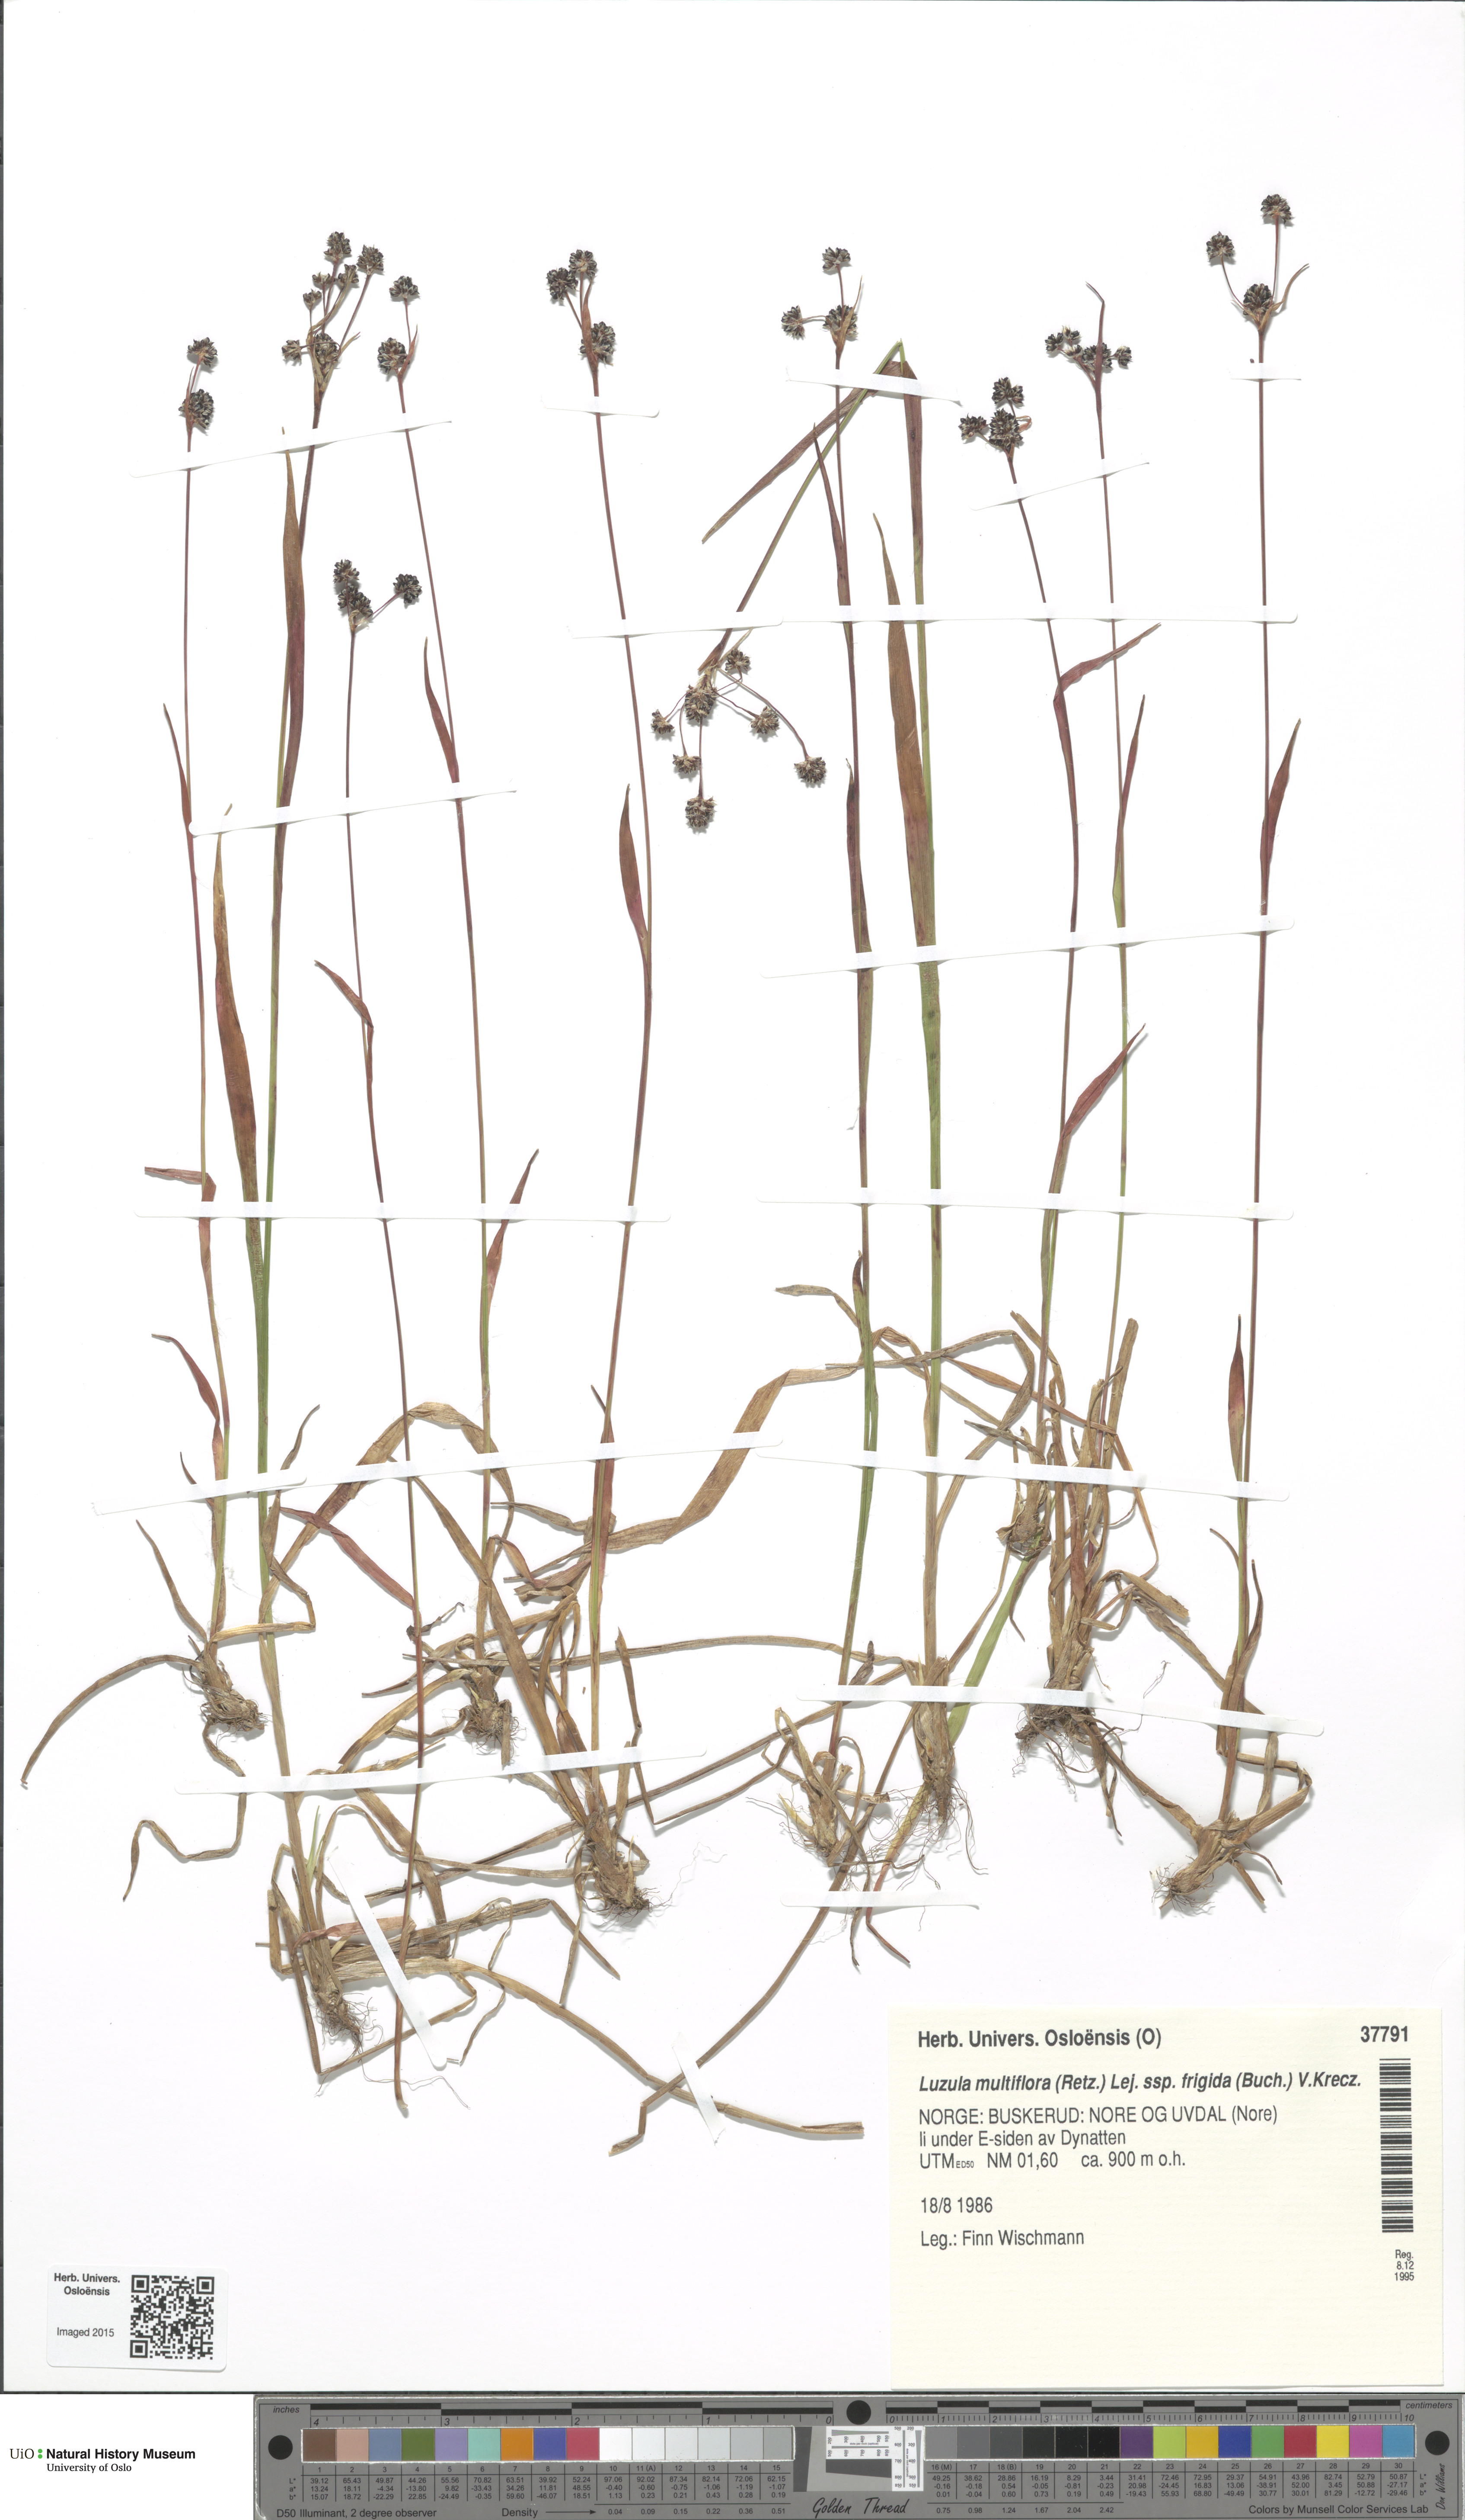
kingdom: Plantae
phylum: Tracheophyta
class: Liliopsida
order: Poales
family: Juncaceae
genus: Luzula
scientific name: Luzula multiflora
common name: Heath wood-rush
